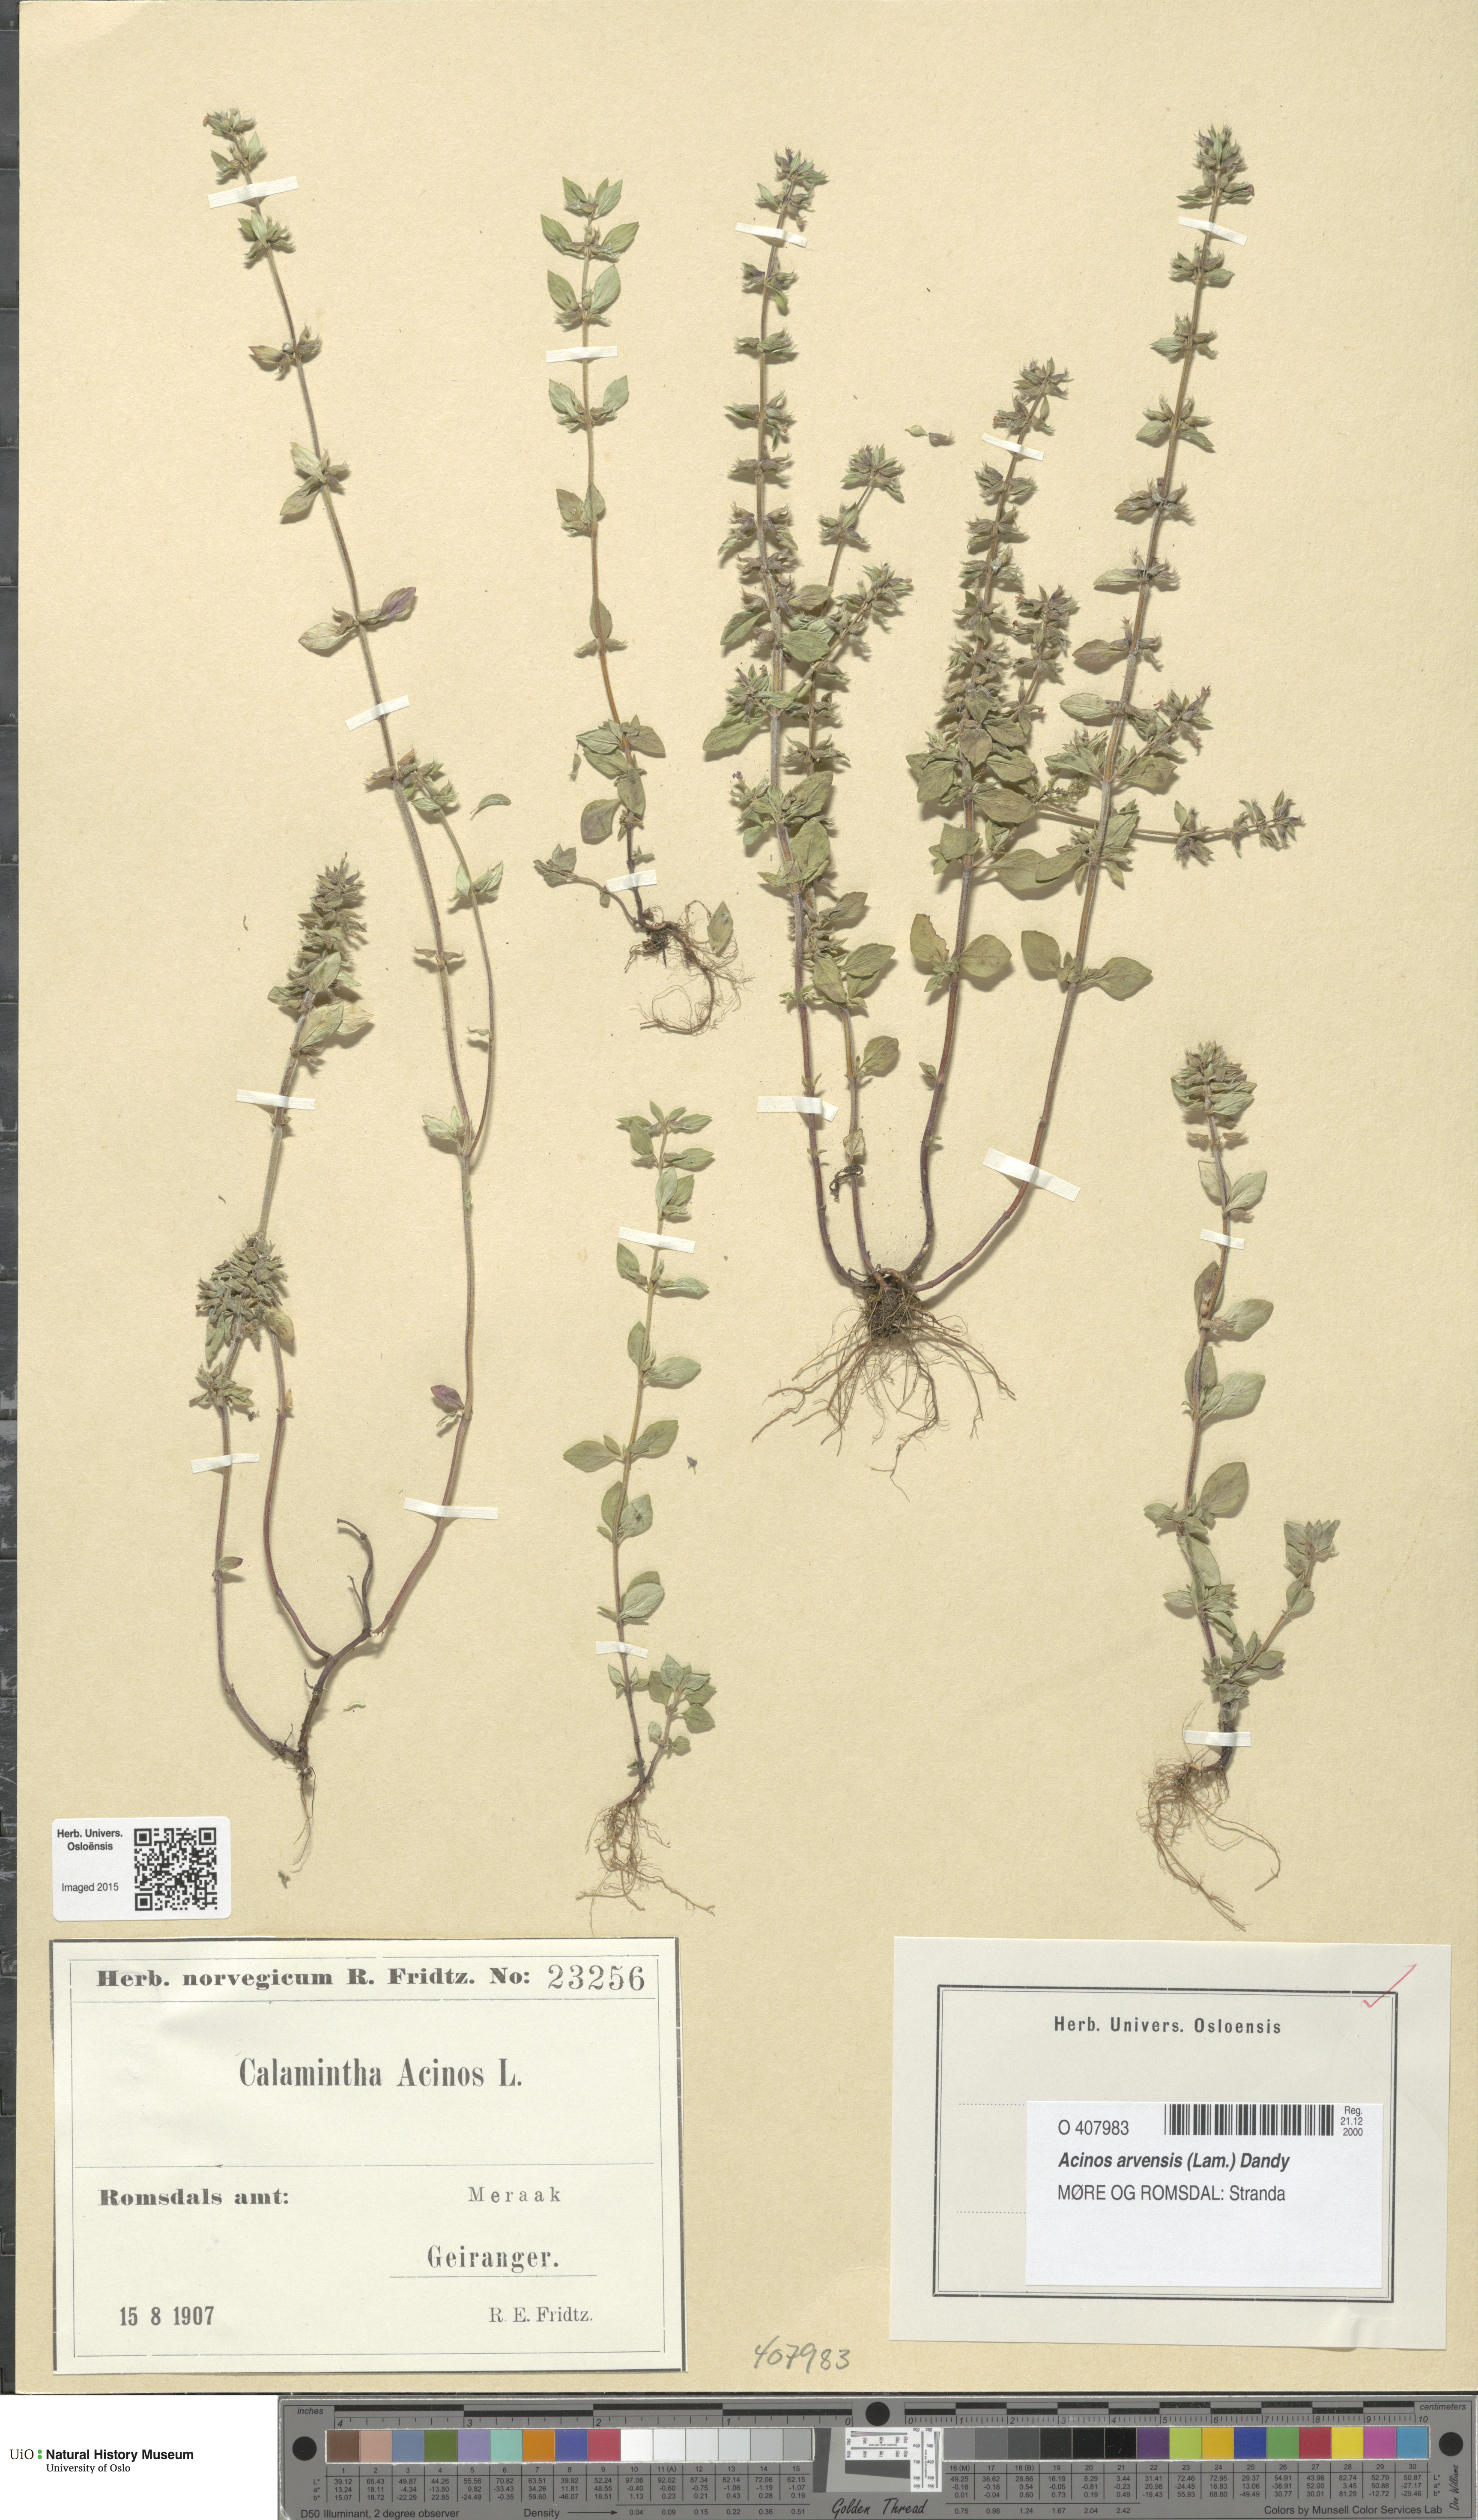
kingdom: Plantae
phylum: Tracheophyta
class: Magnoliopsida
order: Lamiales
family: Lamiaceae
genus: Clinopodium
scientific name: Clinopodium acinos
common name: Basil thyme
